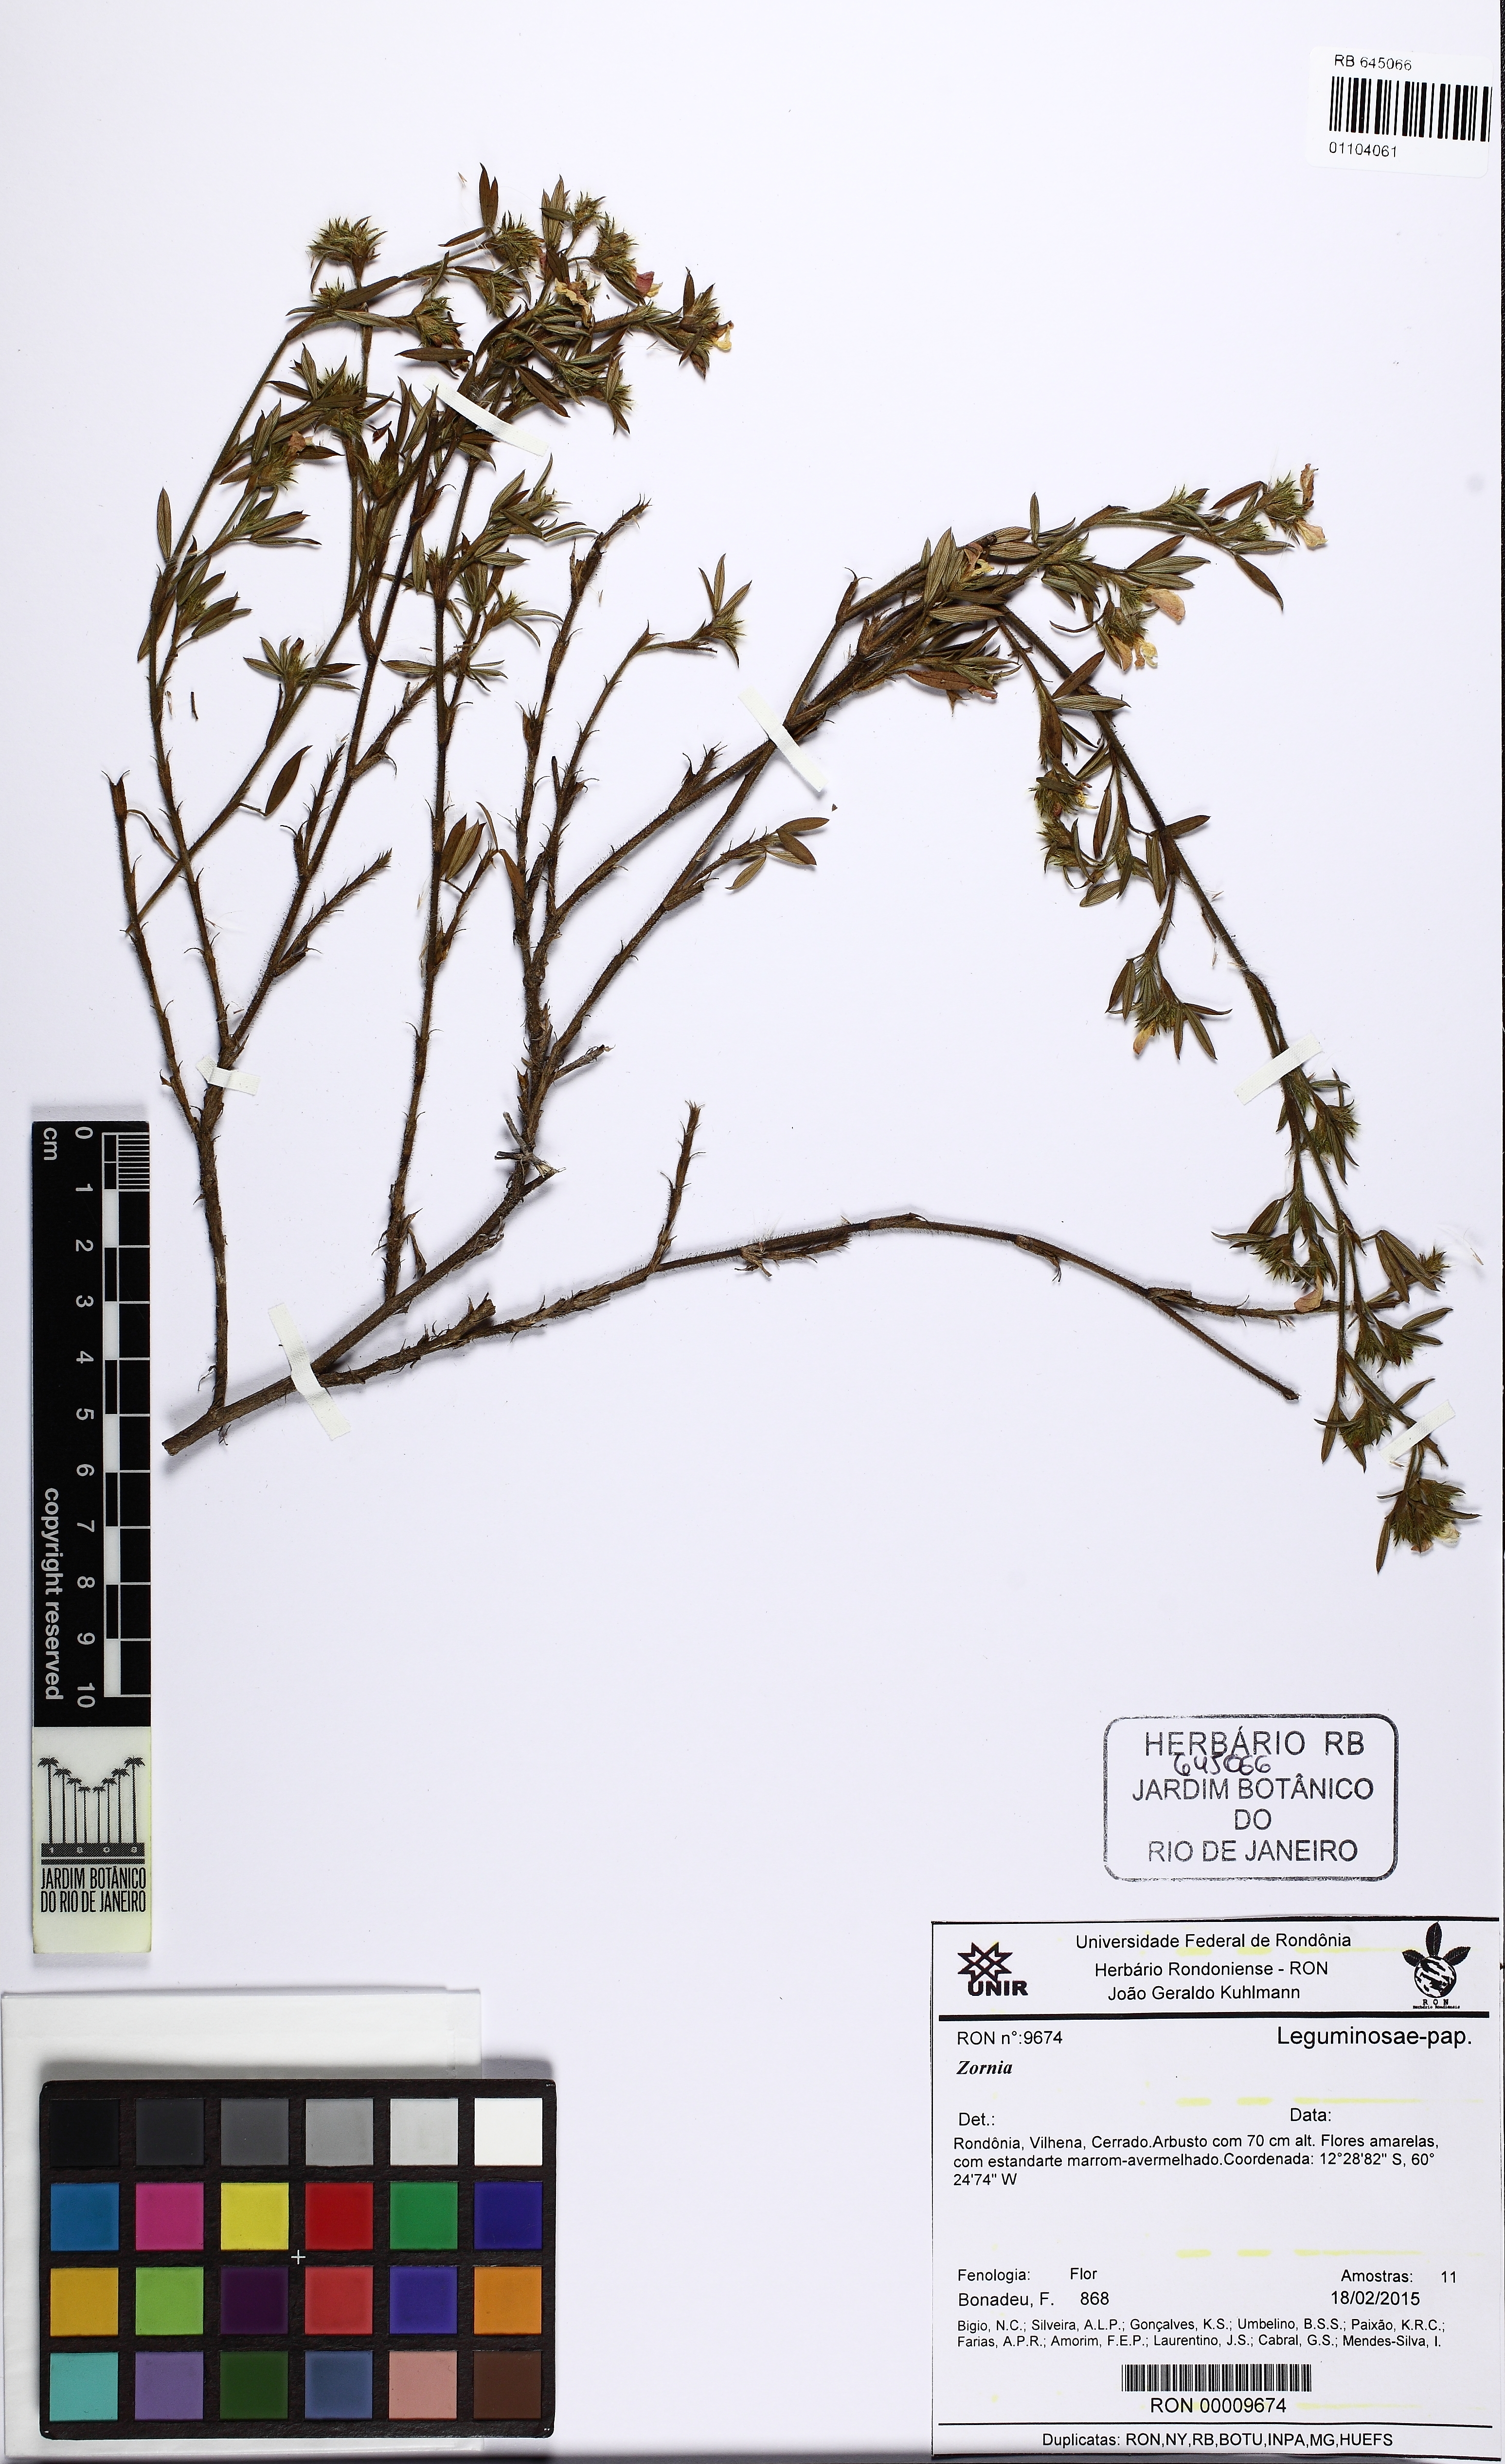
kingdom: Plantae
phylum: Tracheophyta
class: Magnoliopsida
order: Fabales
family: Fabaceae
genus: Stylosanthes
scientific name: Stylosanthes
